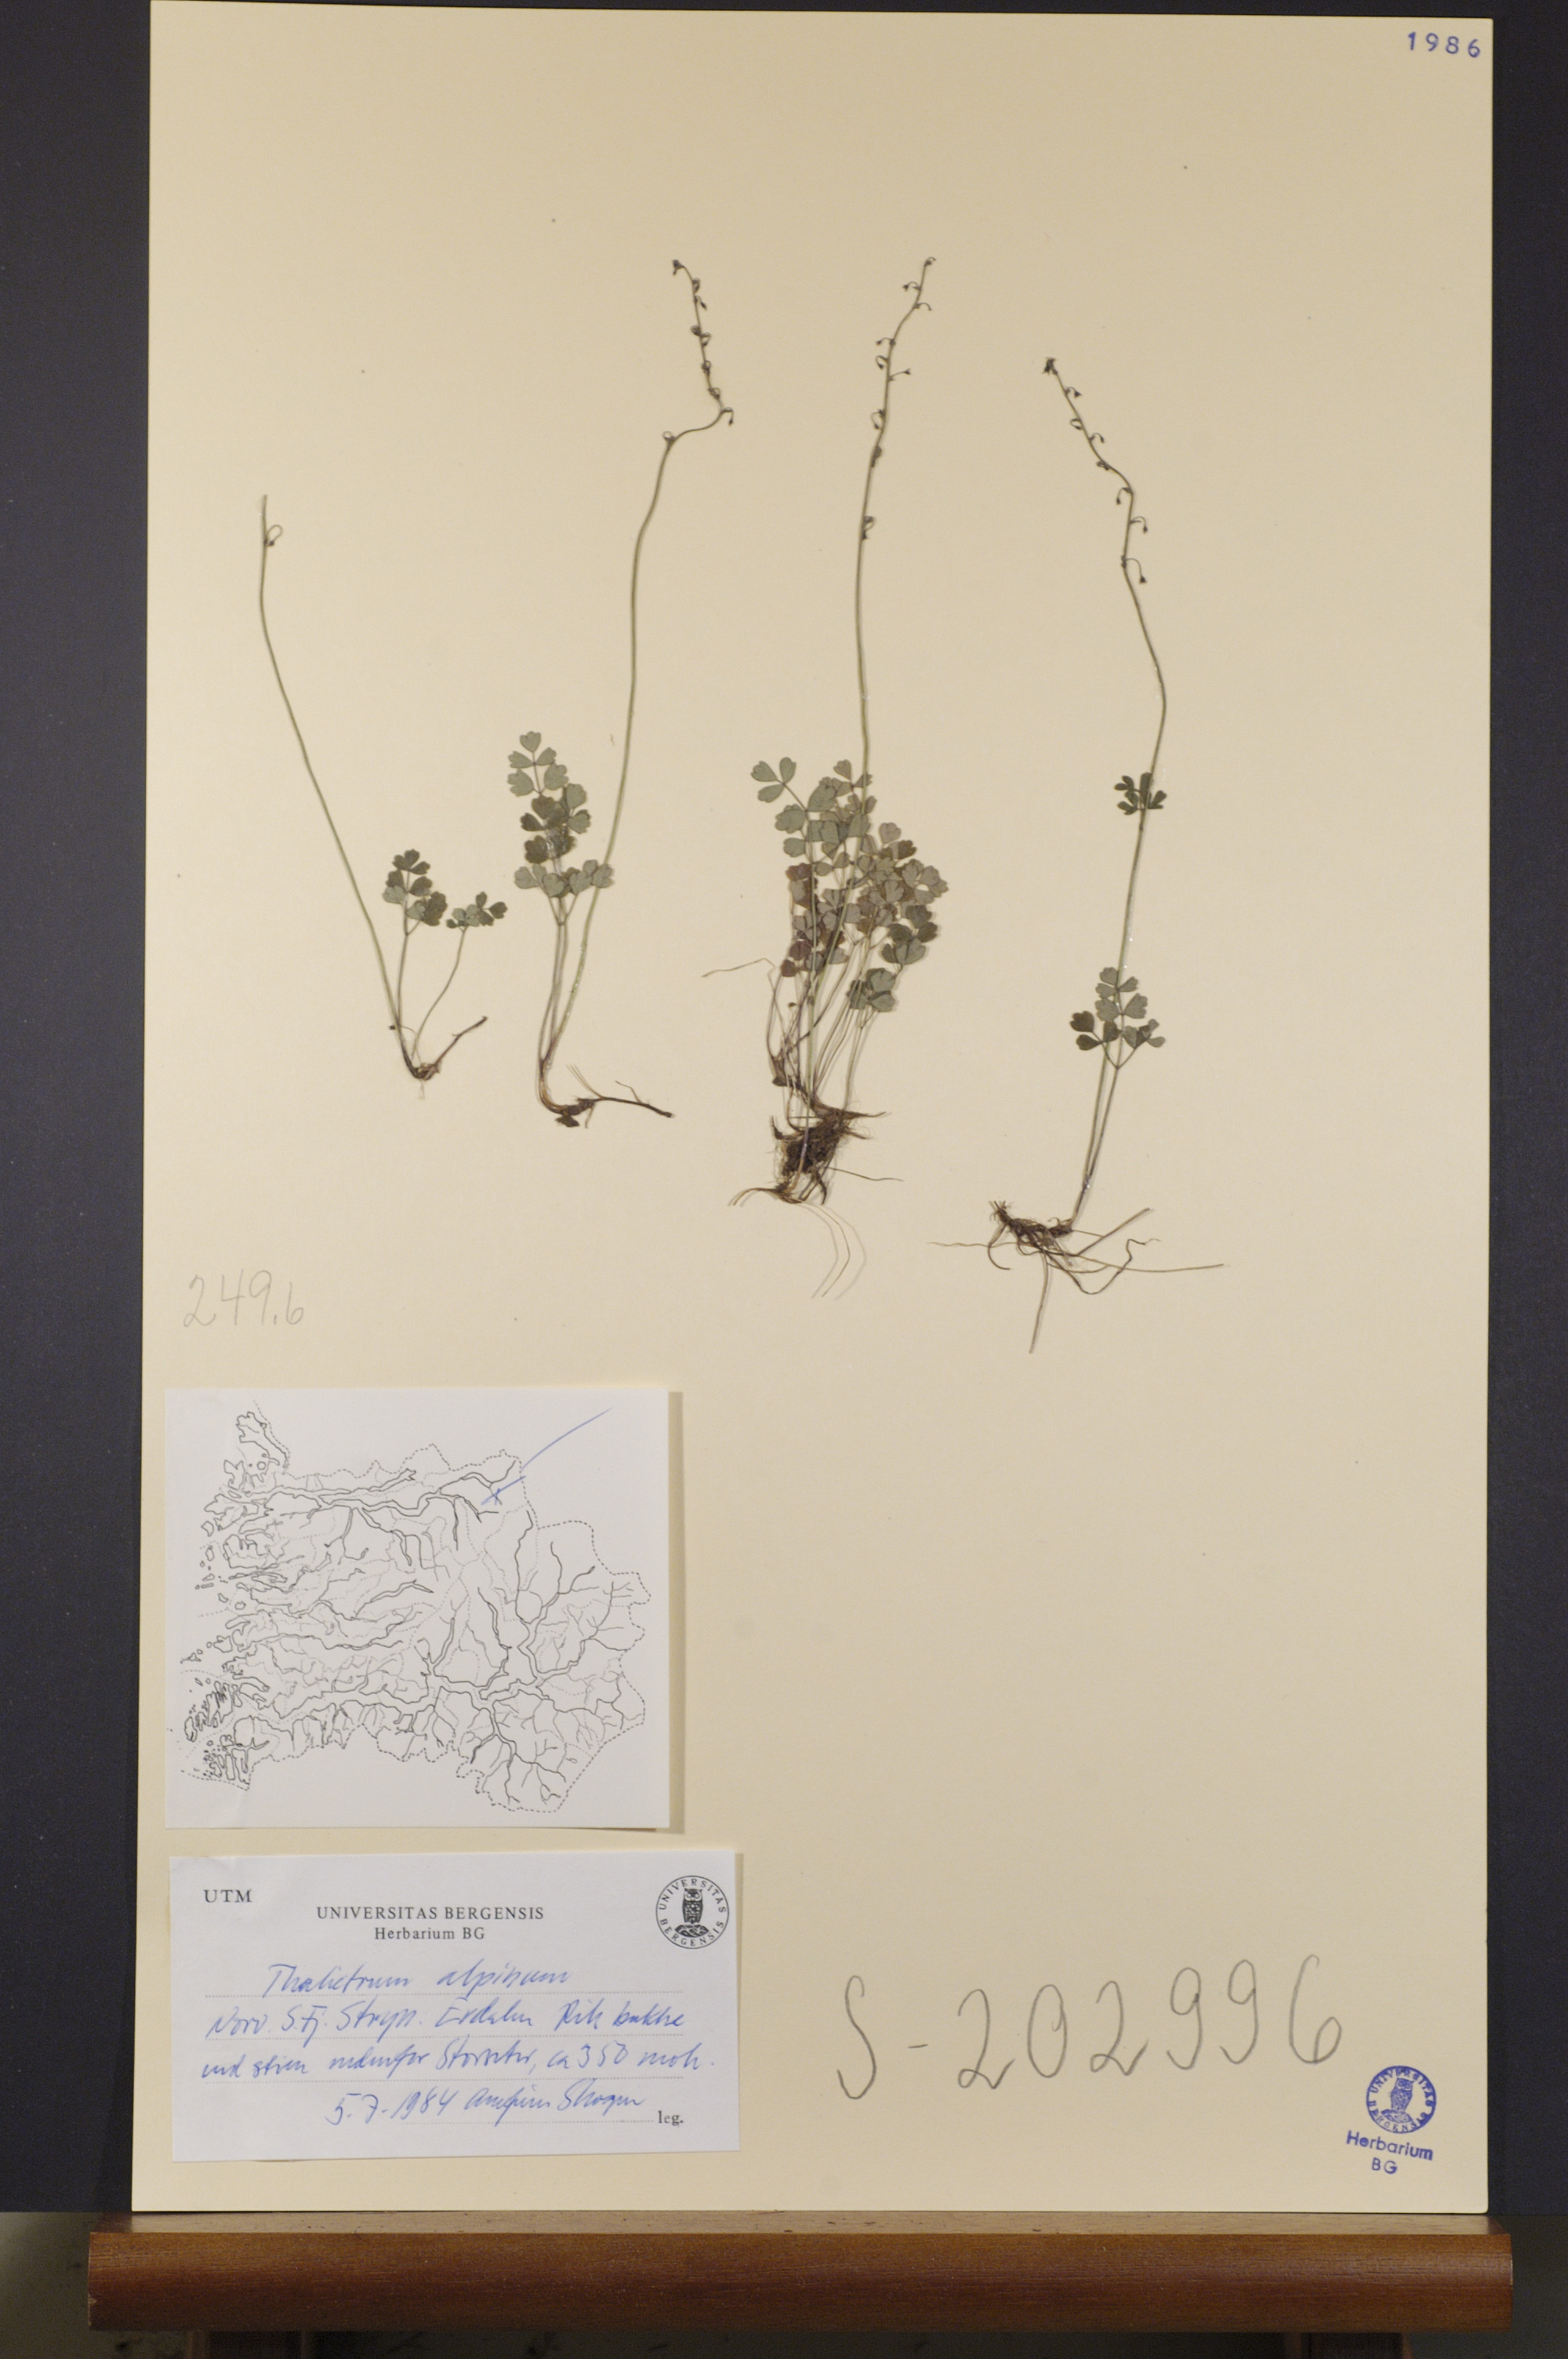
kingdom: Plantae
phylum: Tracheophyta
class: Magnoliopsida
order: Ranunculales
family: Ranunculaceae
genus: Thalictrum
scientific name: Thalictrum alpinum
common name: Alpine meadow-rue
